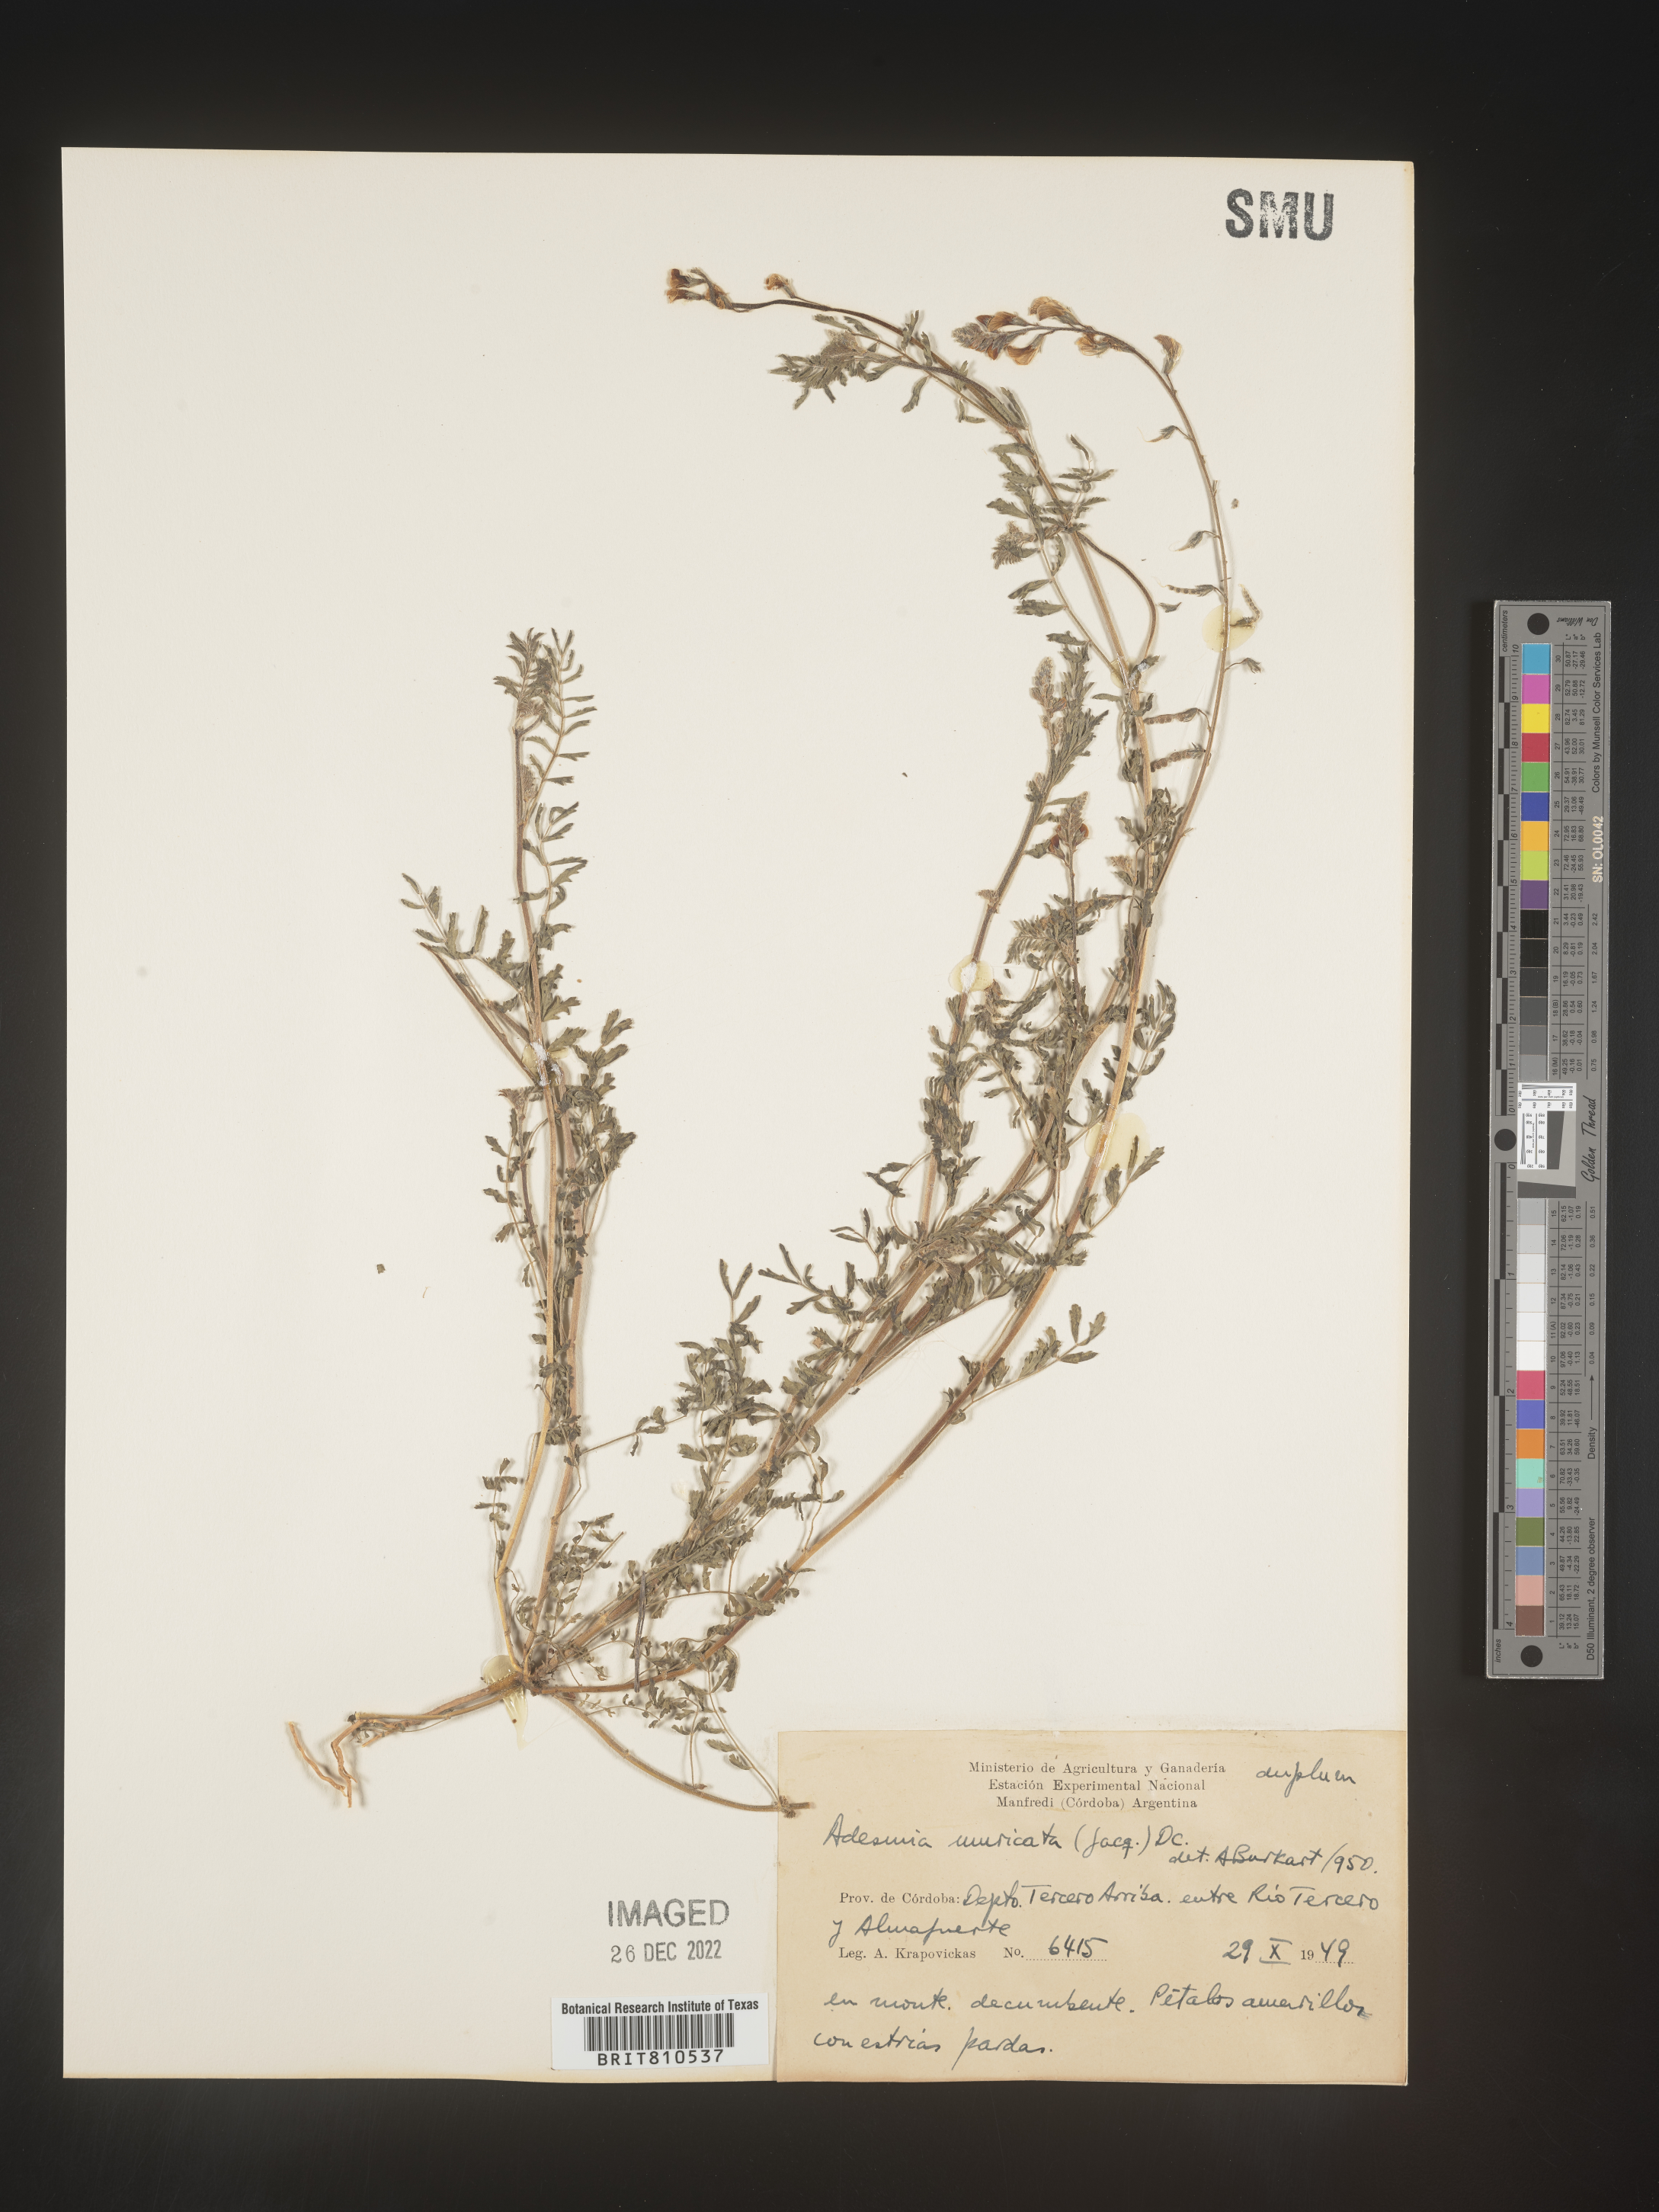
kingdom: Plantae
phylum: Tracheophyta
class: Magnoliopsida
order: Fabales
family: Fabaceae
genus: Adesmia
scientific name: Adesmia
